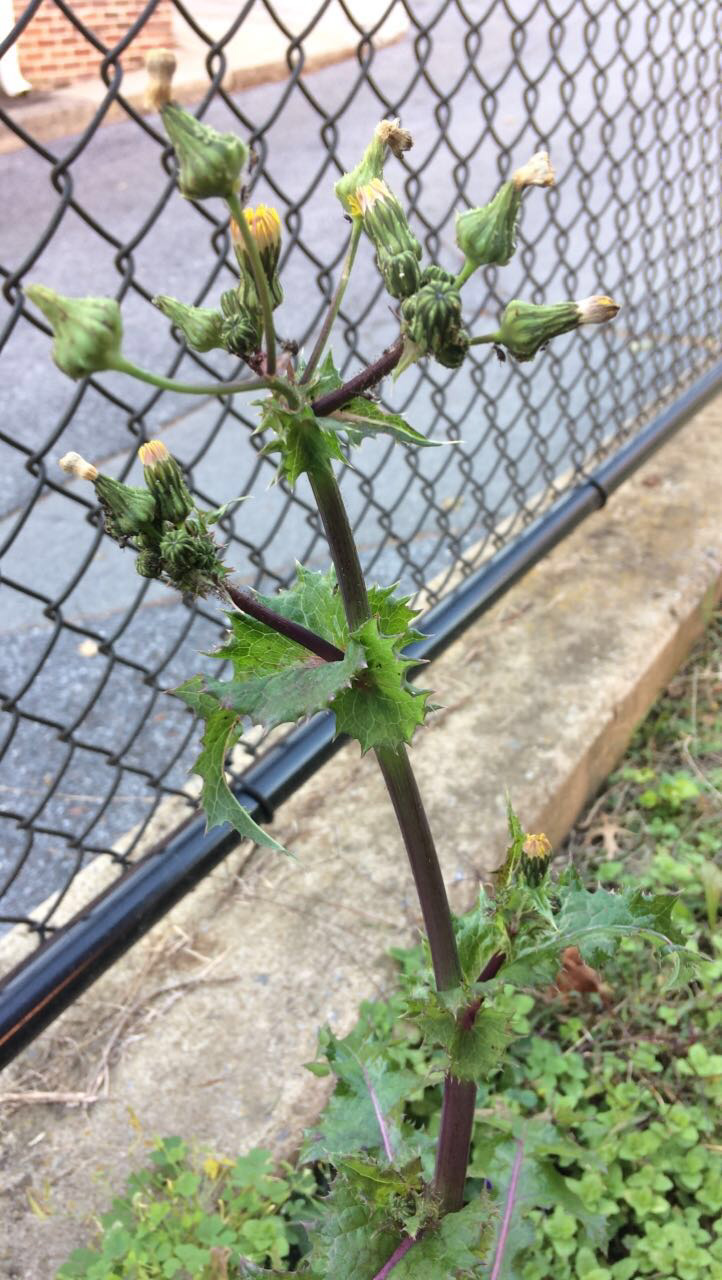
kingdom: Plantae
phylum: Tracheophyta
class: Magnoliopsida
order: Asterales
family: Asteraceae
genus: Sonchus
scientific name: Sonchus asper
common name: Spiny-leaved sow-thistle
